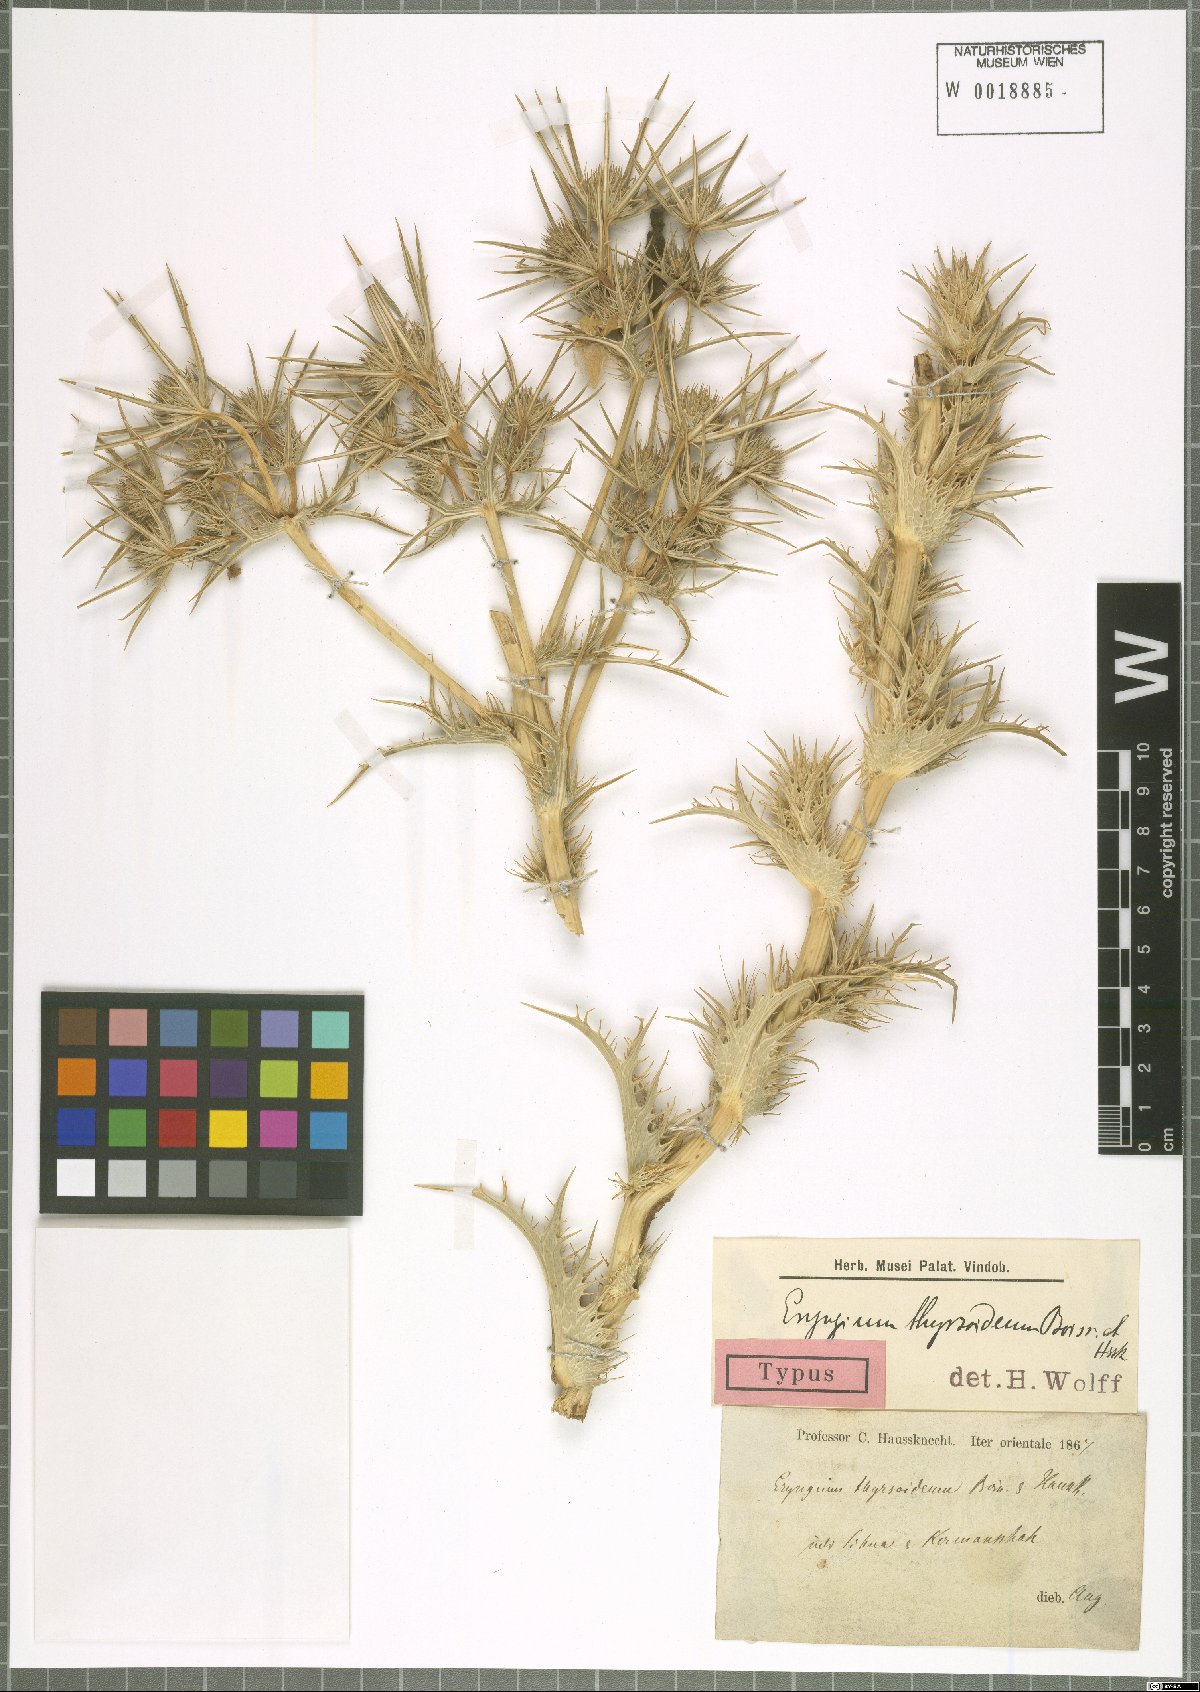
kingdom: Plantae
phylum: Tracheophyta
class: Magnoliopsida
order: Apiales
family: Apiaceae
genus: Eryngium
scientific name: Eryngium thyrsoideum
